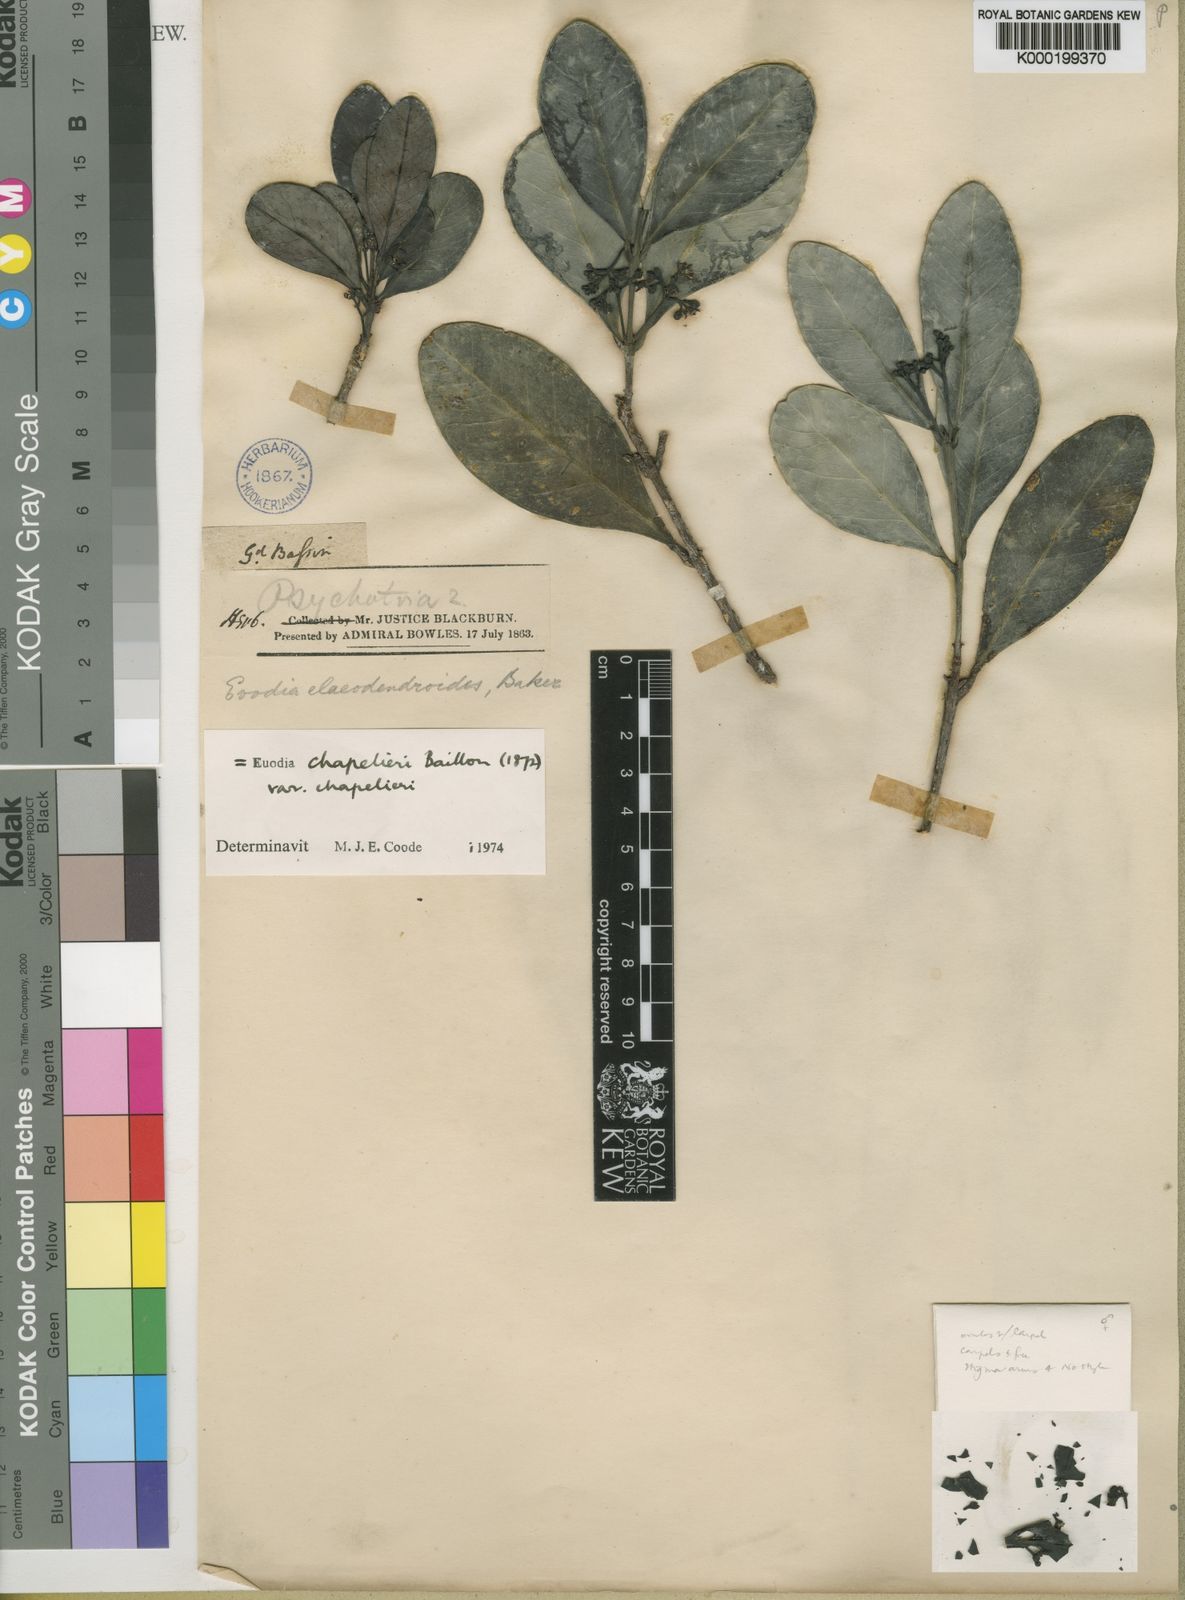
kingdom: Plantae
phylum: Tracheophyta
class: Magnoliopsida
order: Sapindales
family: Rutaceae
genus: Melicope
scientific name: Melicope chapelieri
